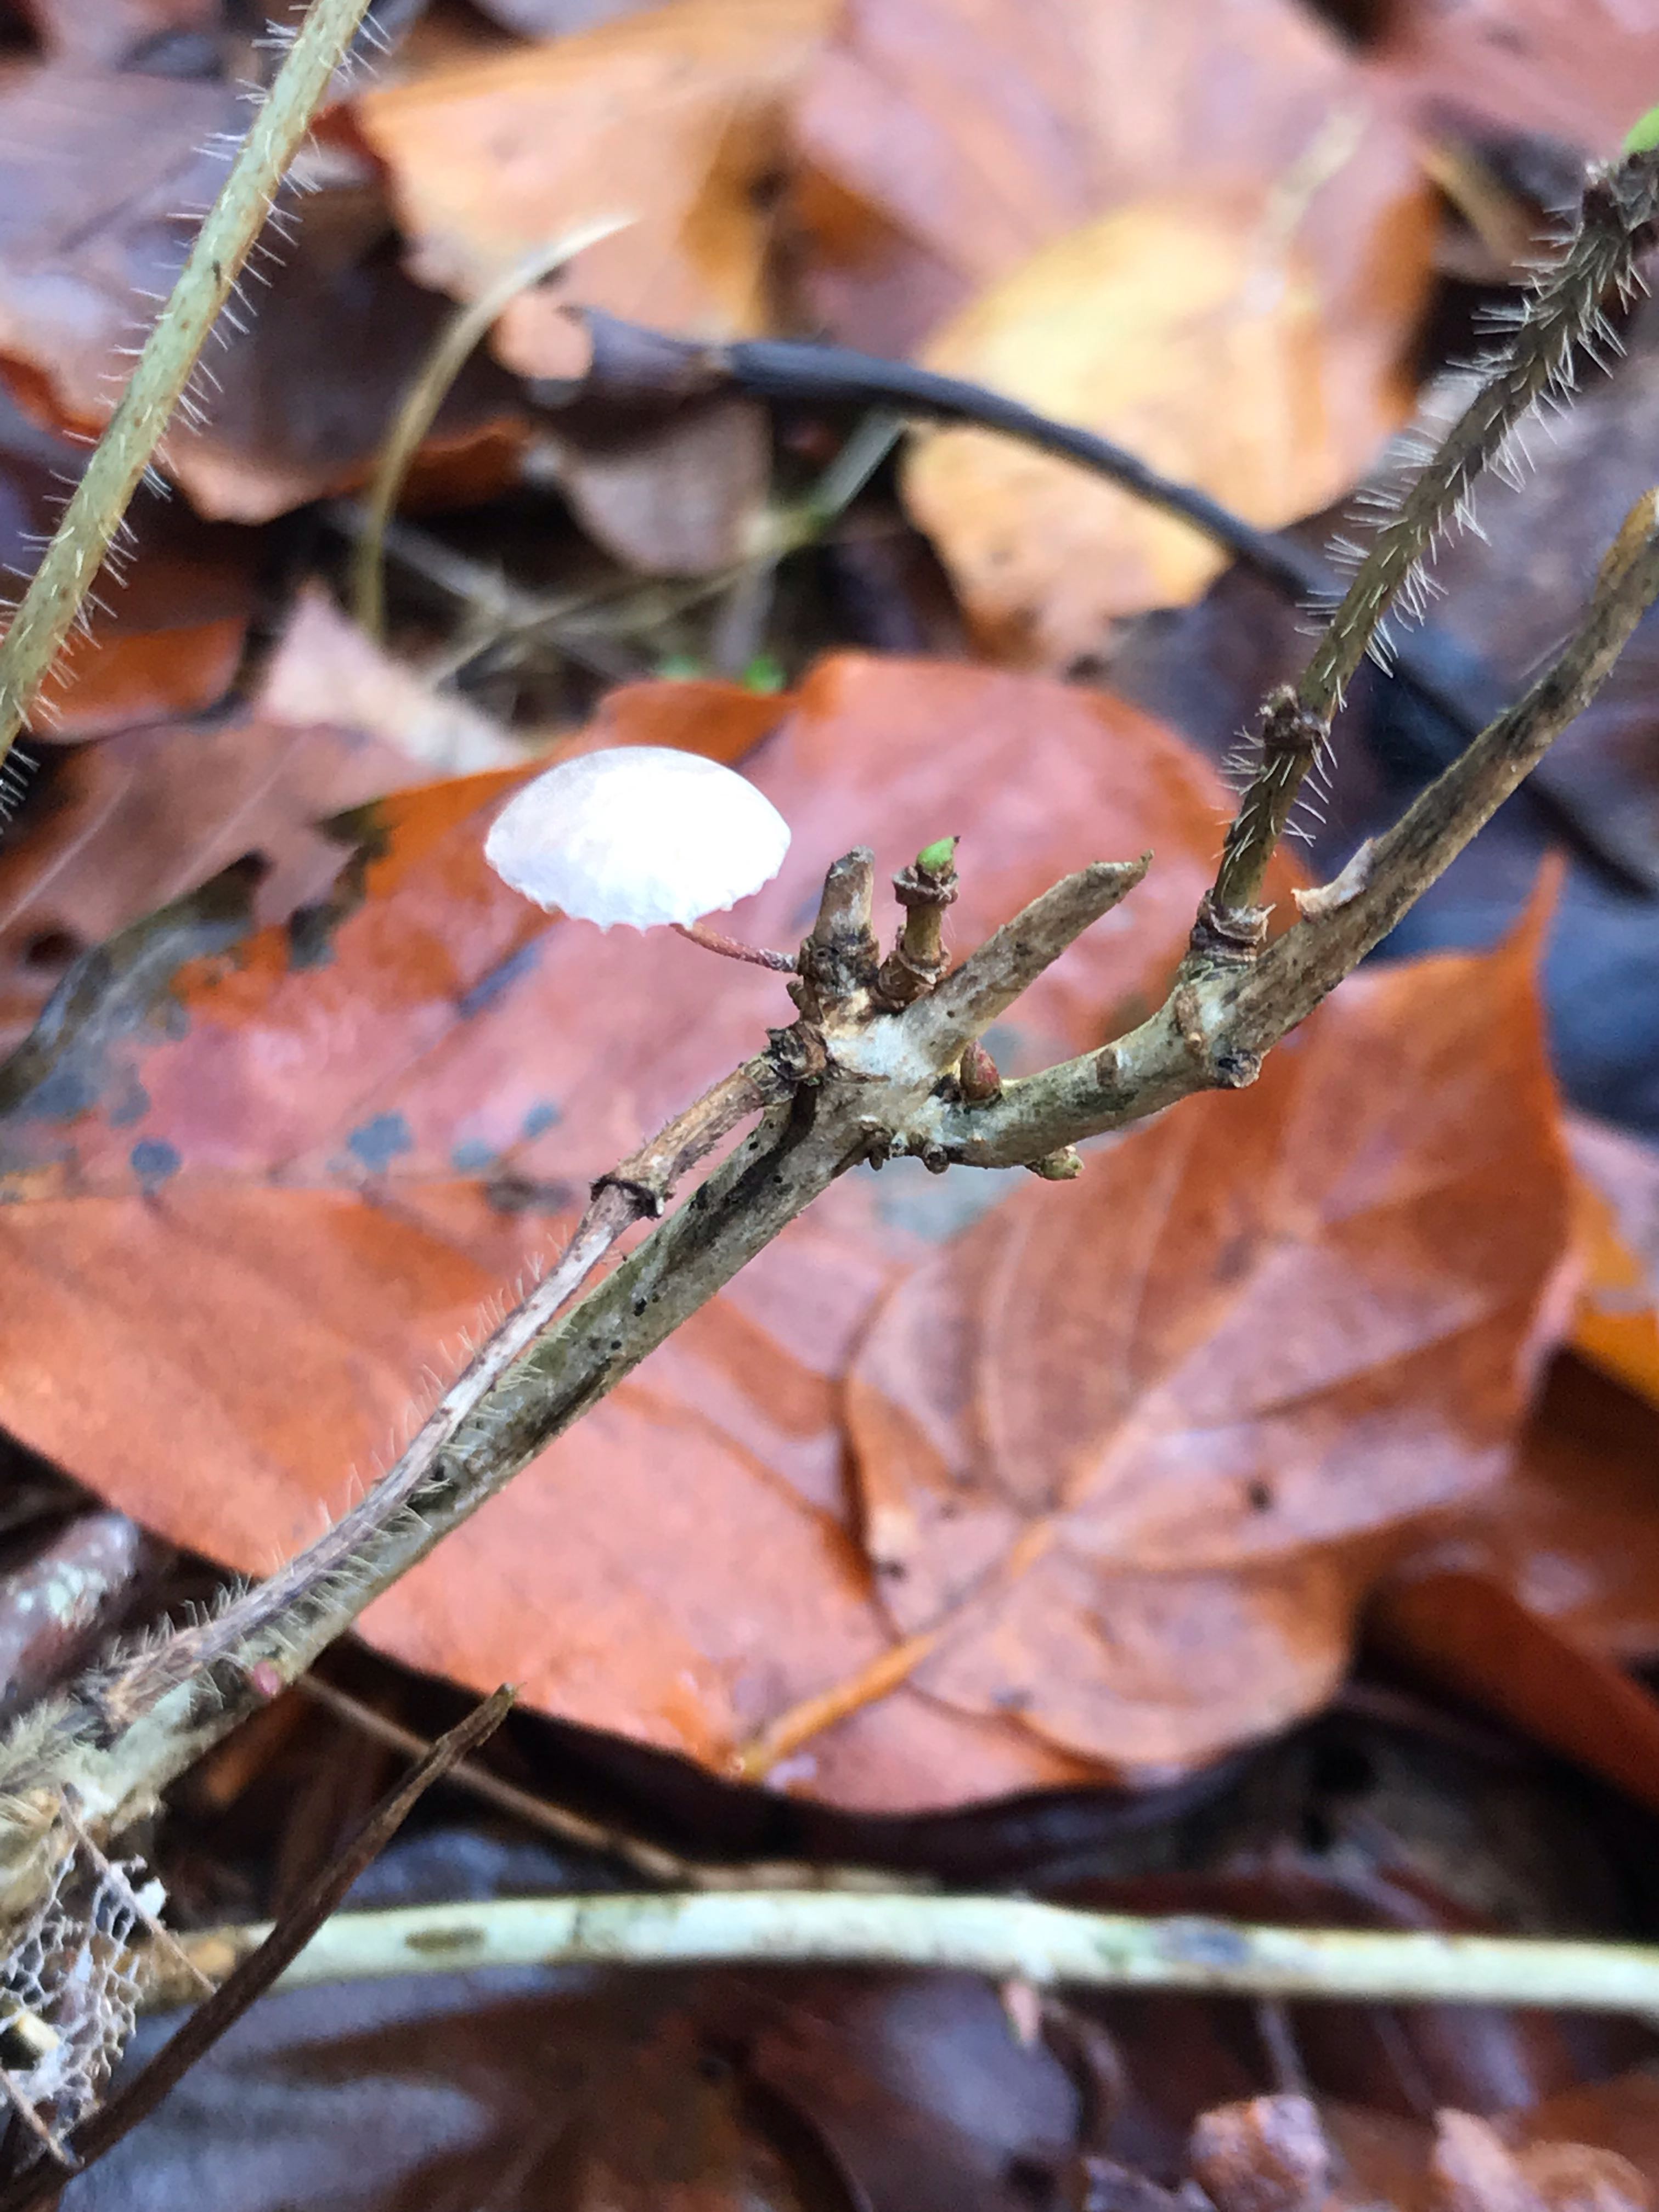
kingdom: Fungi
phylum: Basidiomycota
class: Agaricomycetes
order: Agaricales
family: Omphalotaceae
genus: Collybiopsis
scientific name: Collybiopsis ramealis
